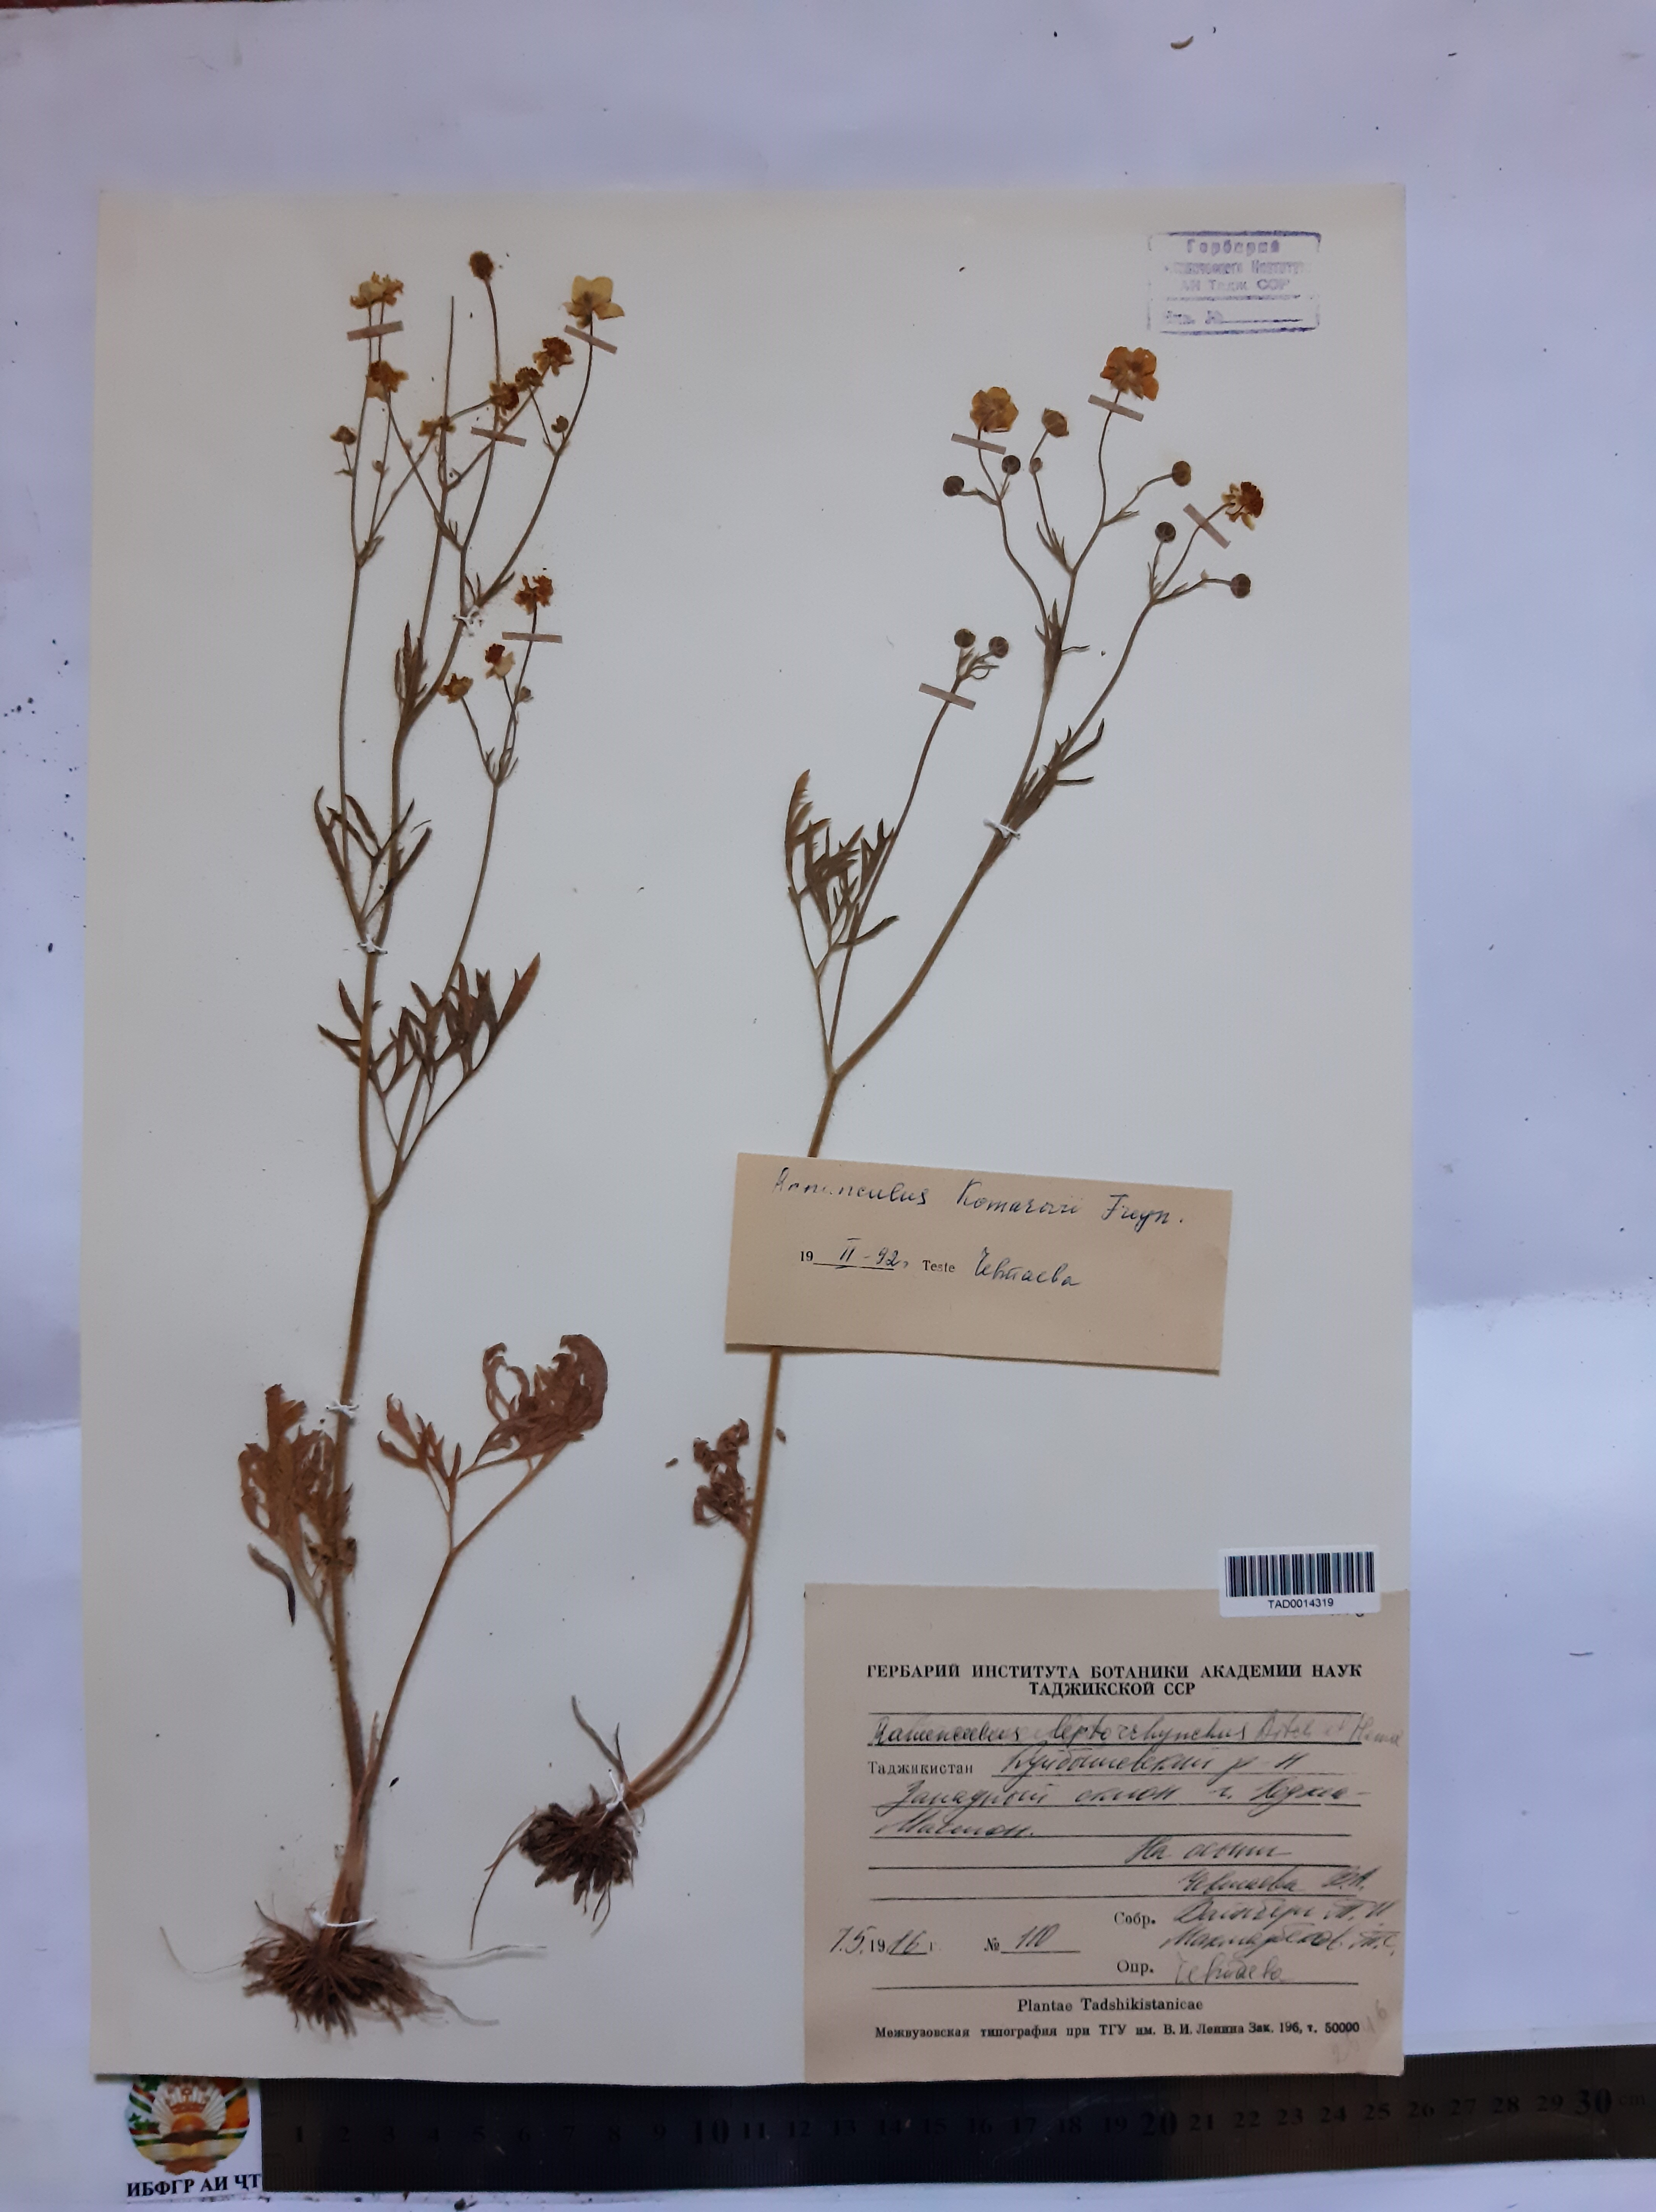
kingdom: Plantae
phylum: Tracheophyta
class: Magnoliopsida
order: Ranunculales
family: Ranunculaceae
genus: Ranunculus
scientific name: Ranunculus leptorrhynchus
